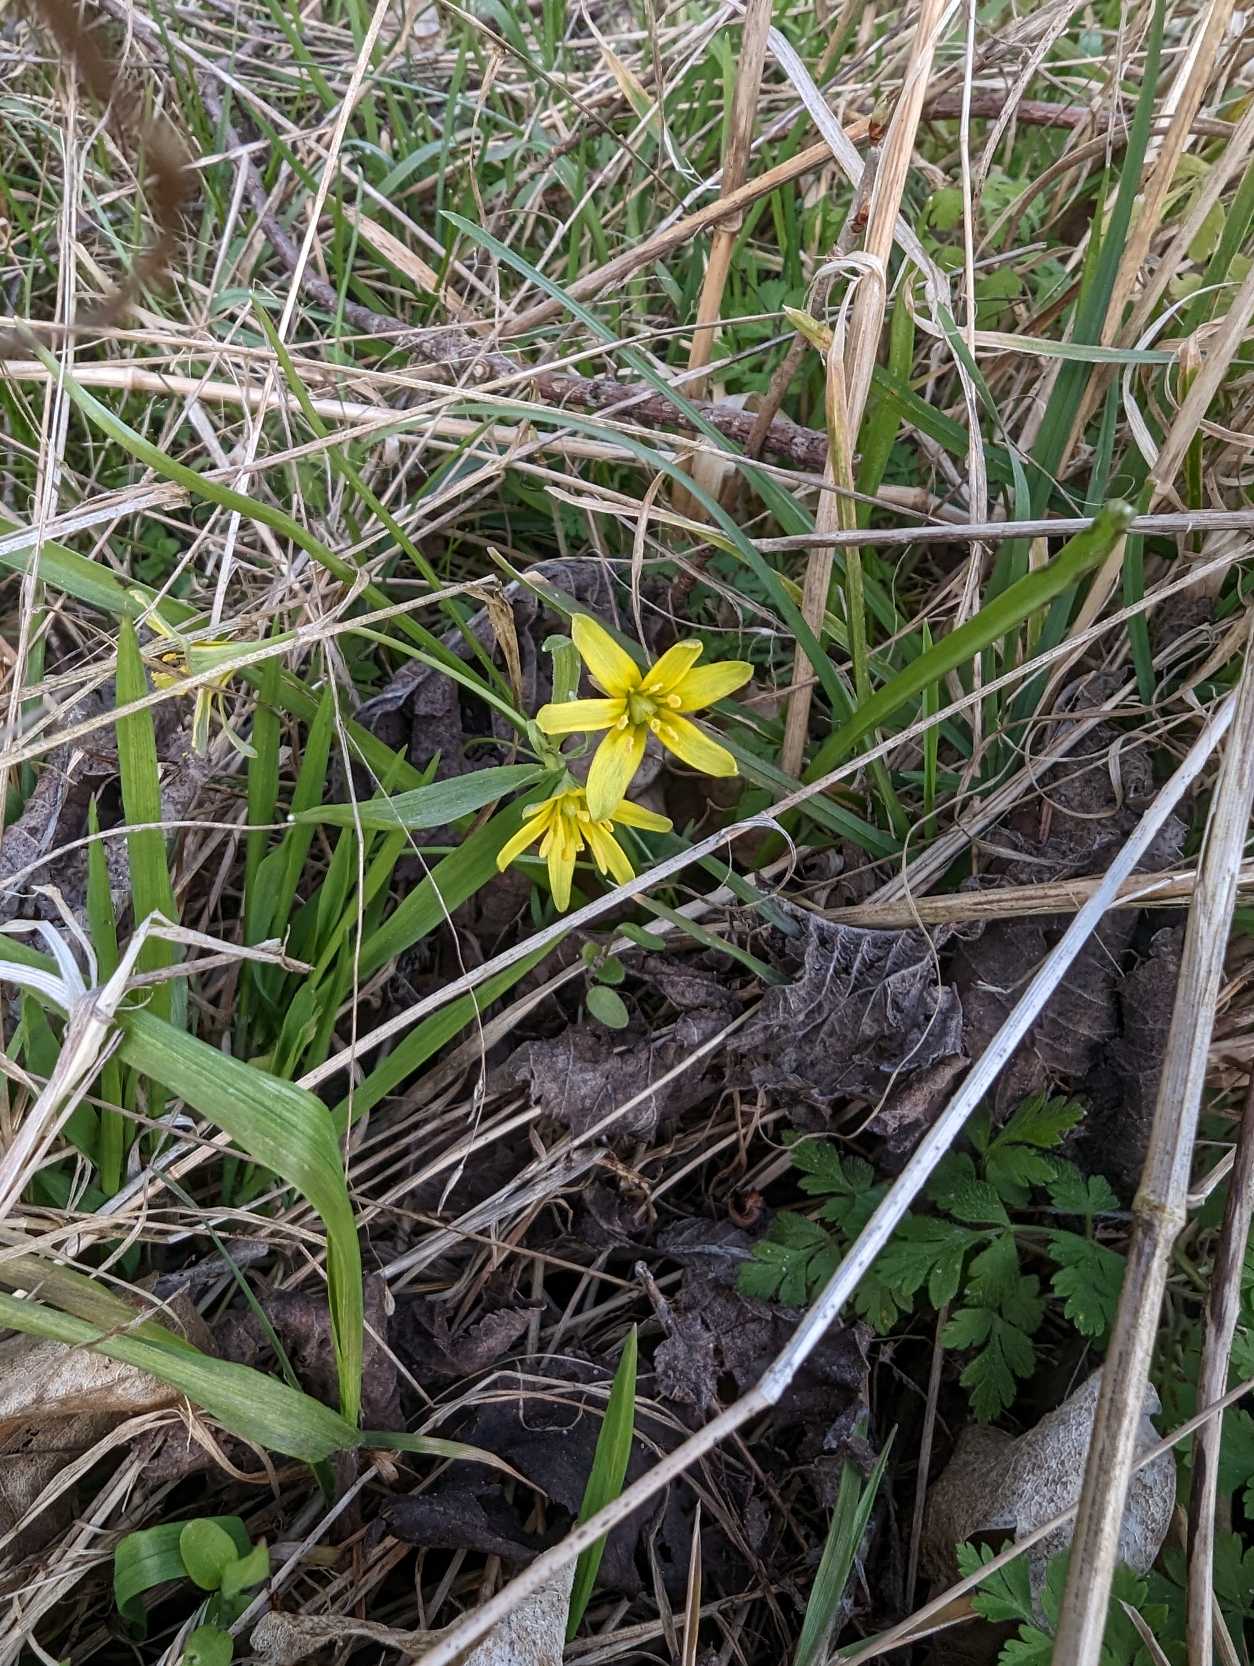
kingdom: Plantae
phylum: Tracheophyta
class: Liliopsida
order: Liliales
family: Liliaceae
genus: Gagea
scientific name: Gagea lutea
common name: Almindelig guldstjerne
